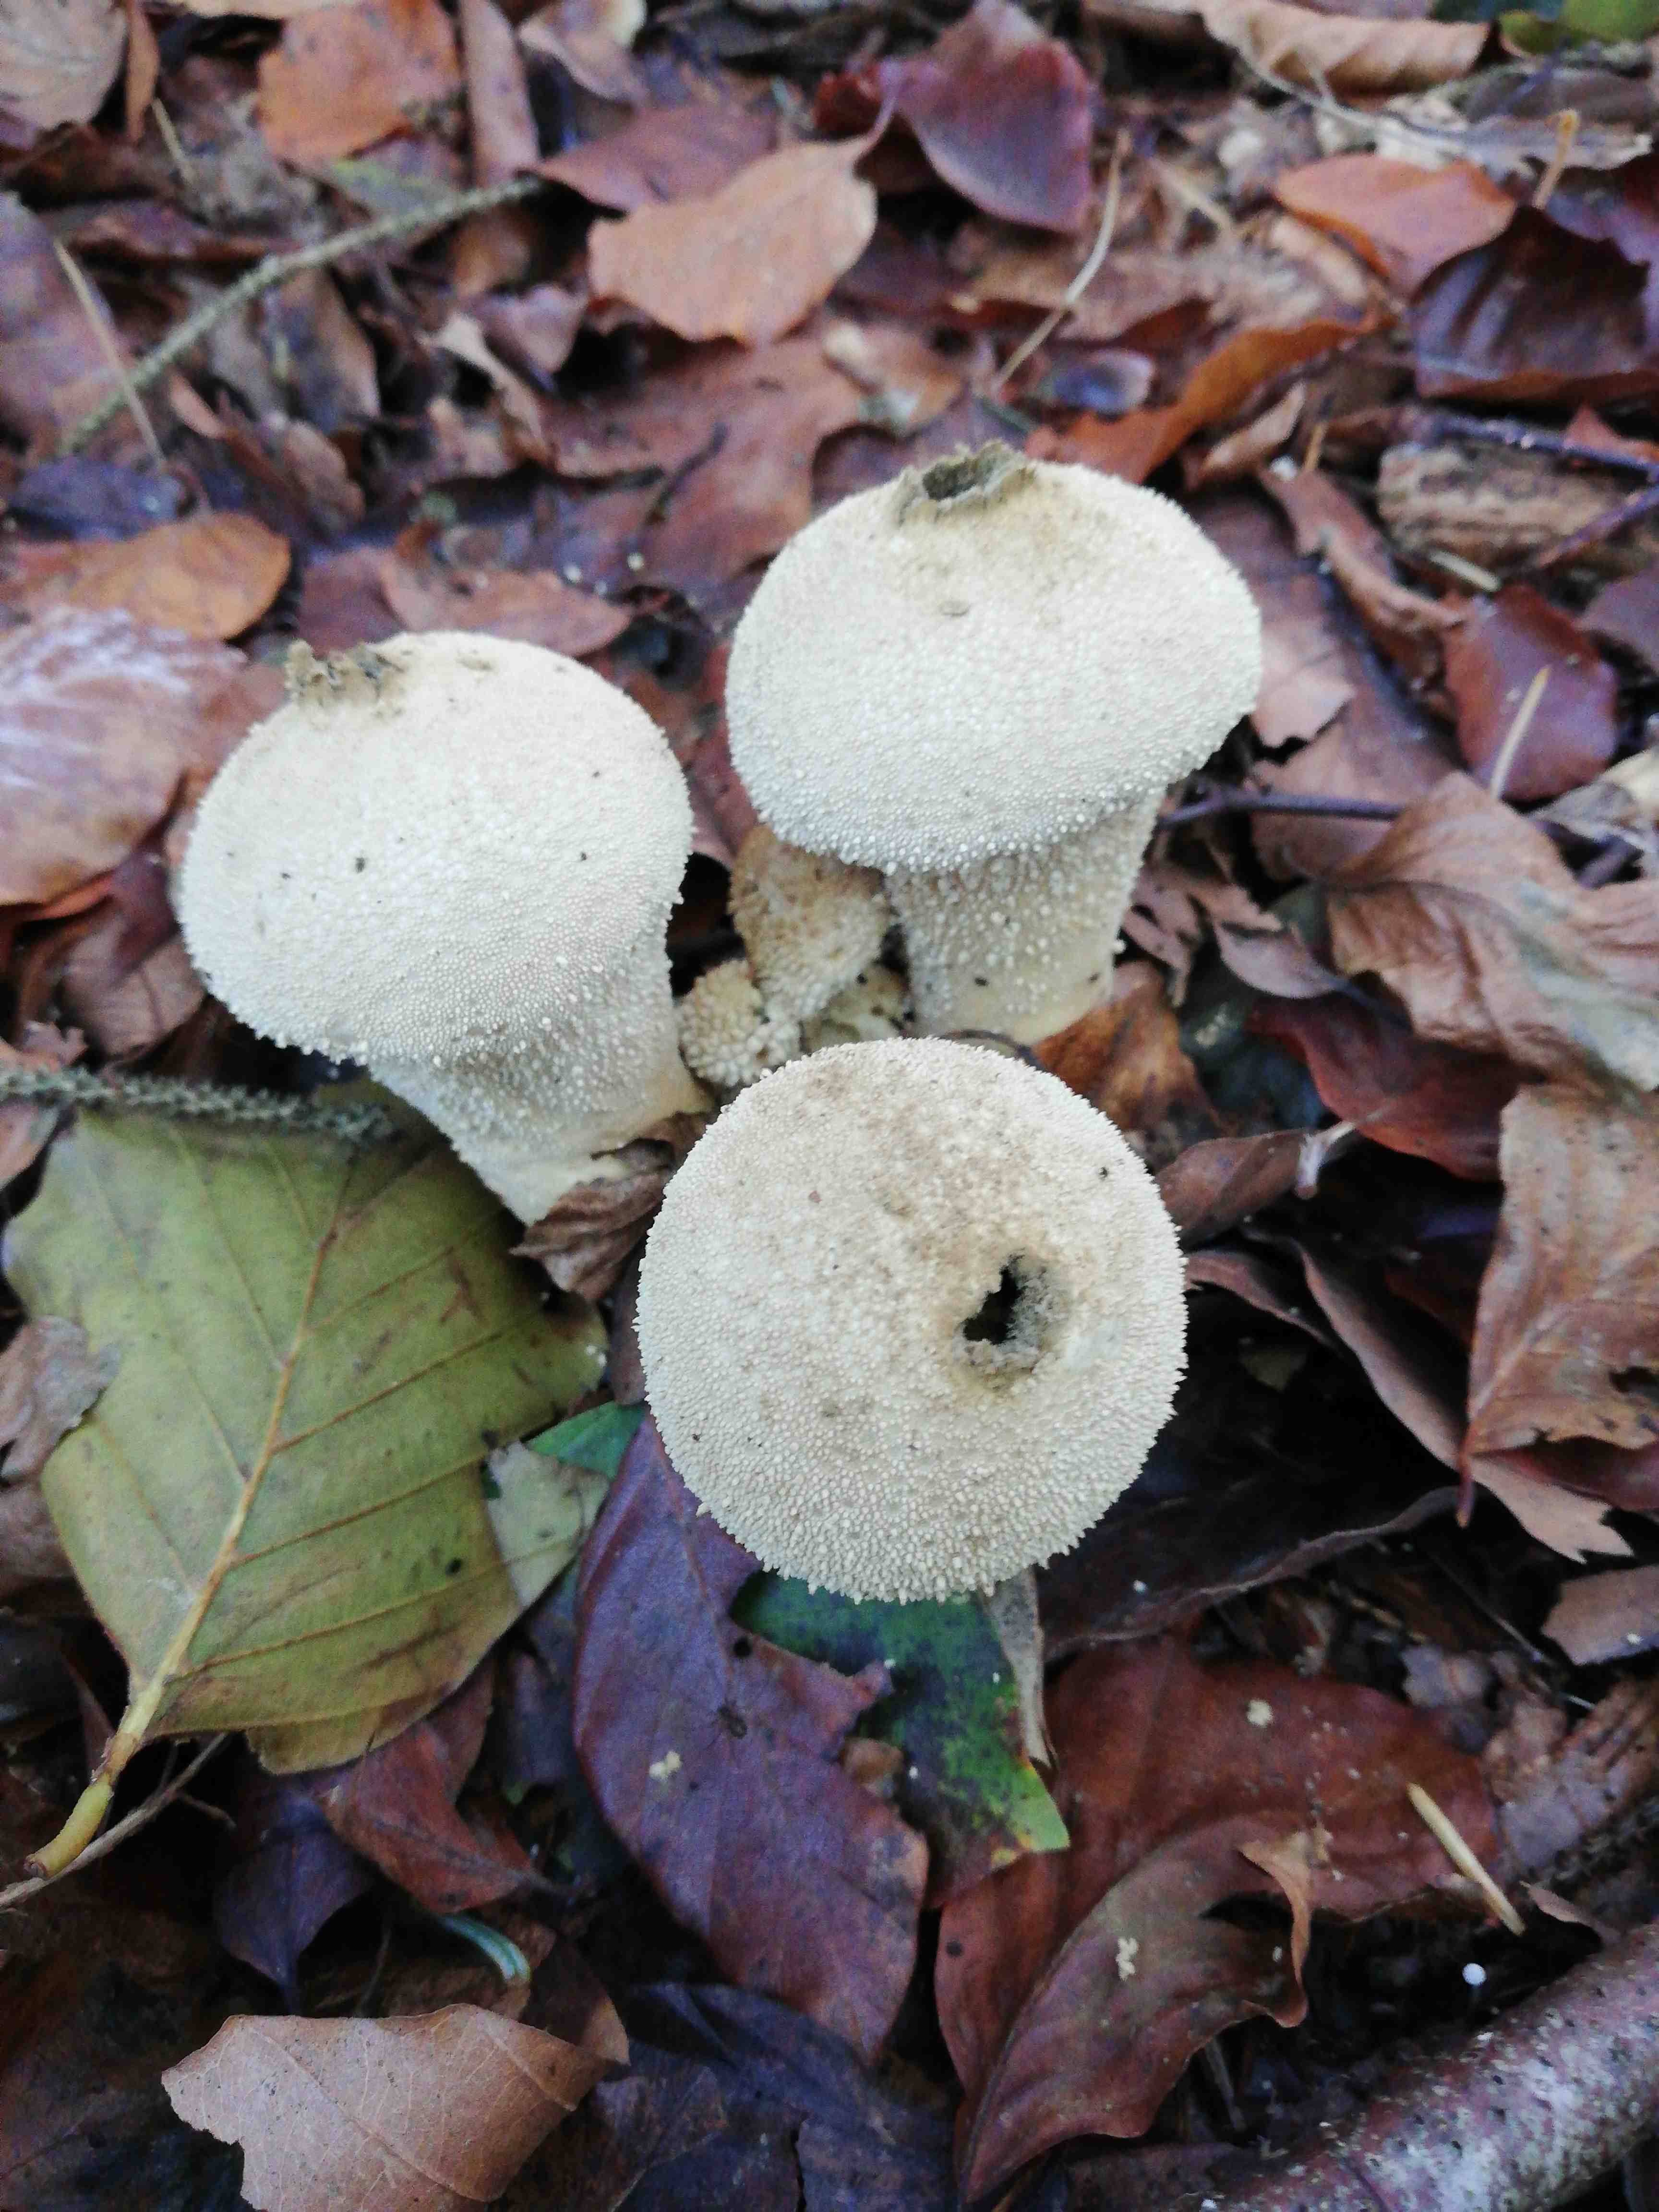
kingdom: Fungi
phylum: Basidiomycota
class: Agaricomycetes
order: Agaricales
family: Lycoperdaceae
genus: Lycoperdon
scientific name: Lycoperdon perlatum
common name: krystal-støvbold
